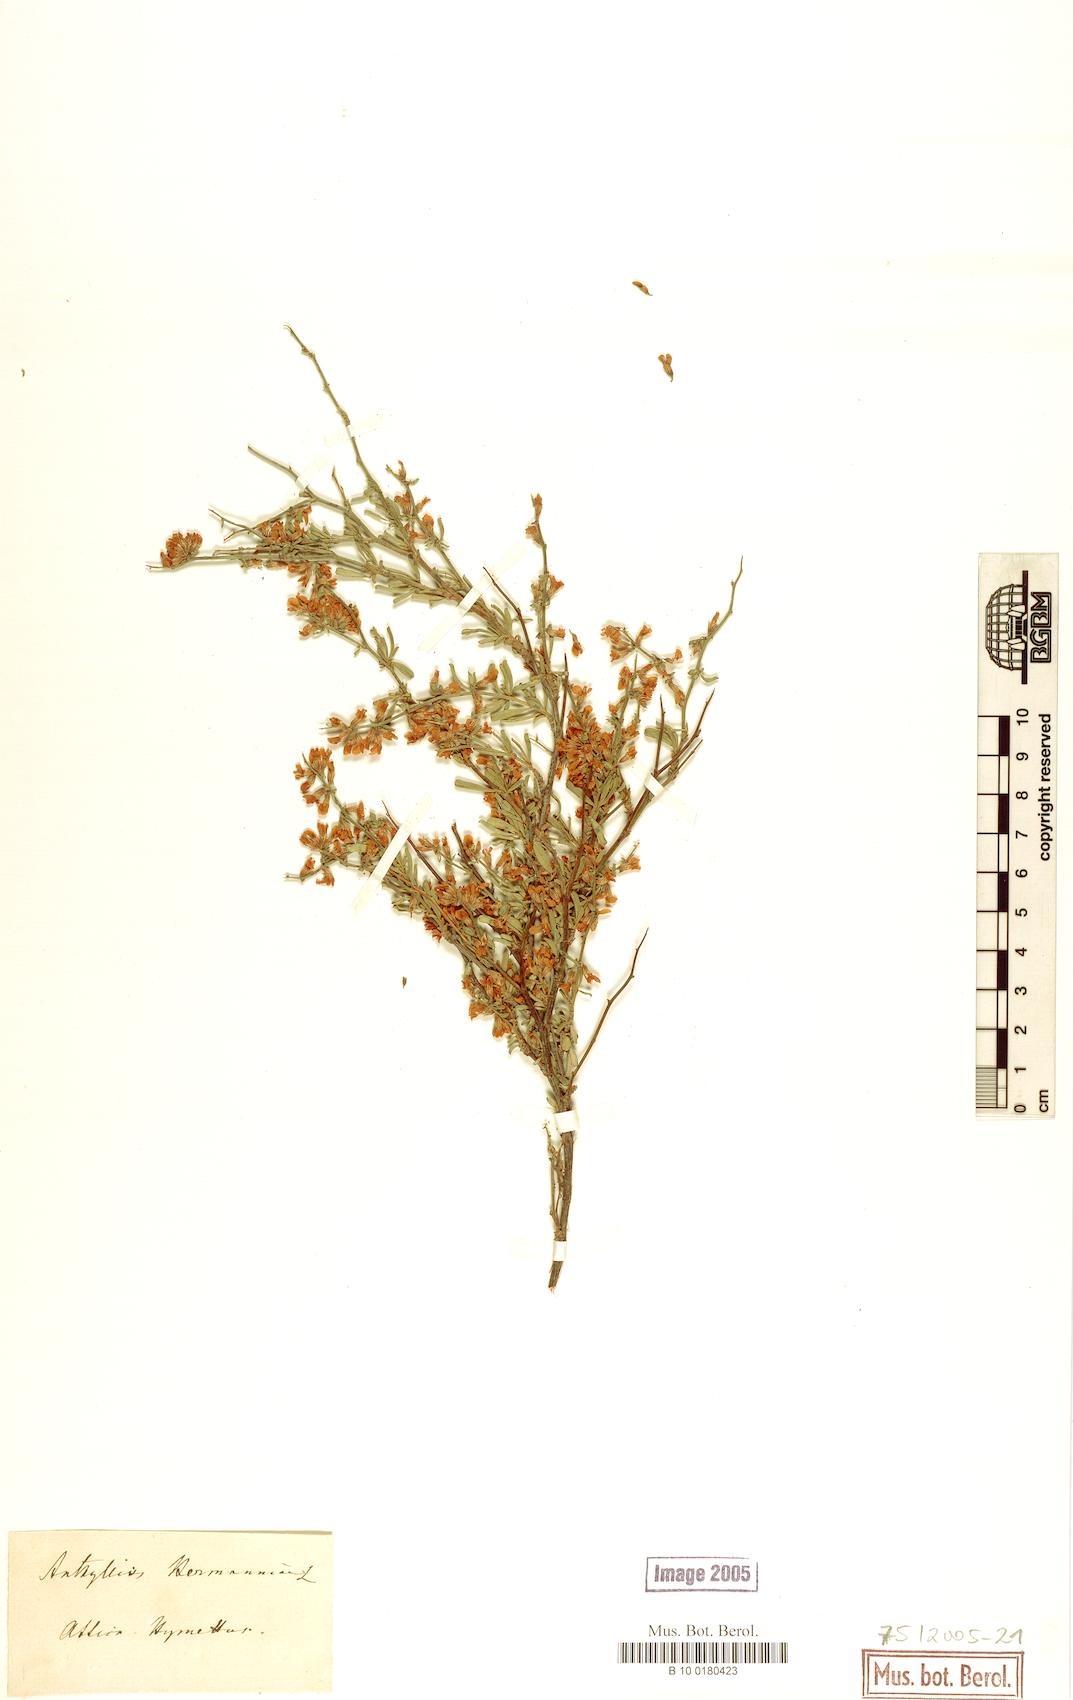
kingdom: Plantae
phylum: Tracheophyta
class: Magnoliopsida
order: Fabales
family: Fabaceae
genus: Anthyllis
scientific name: Anthyllis hermanniae
